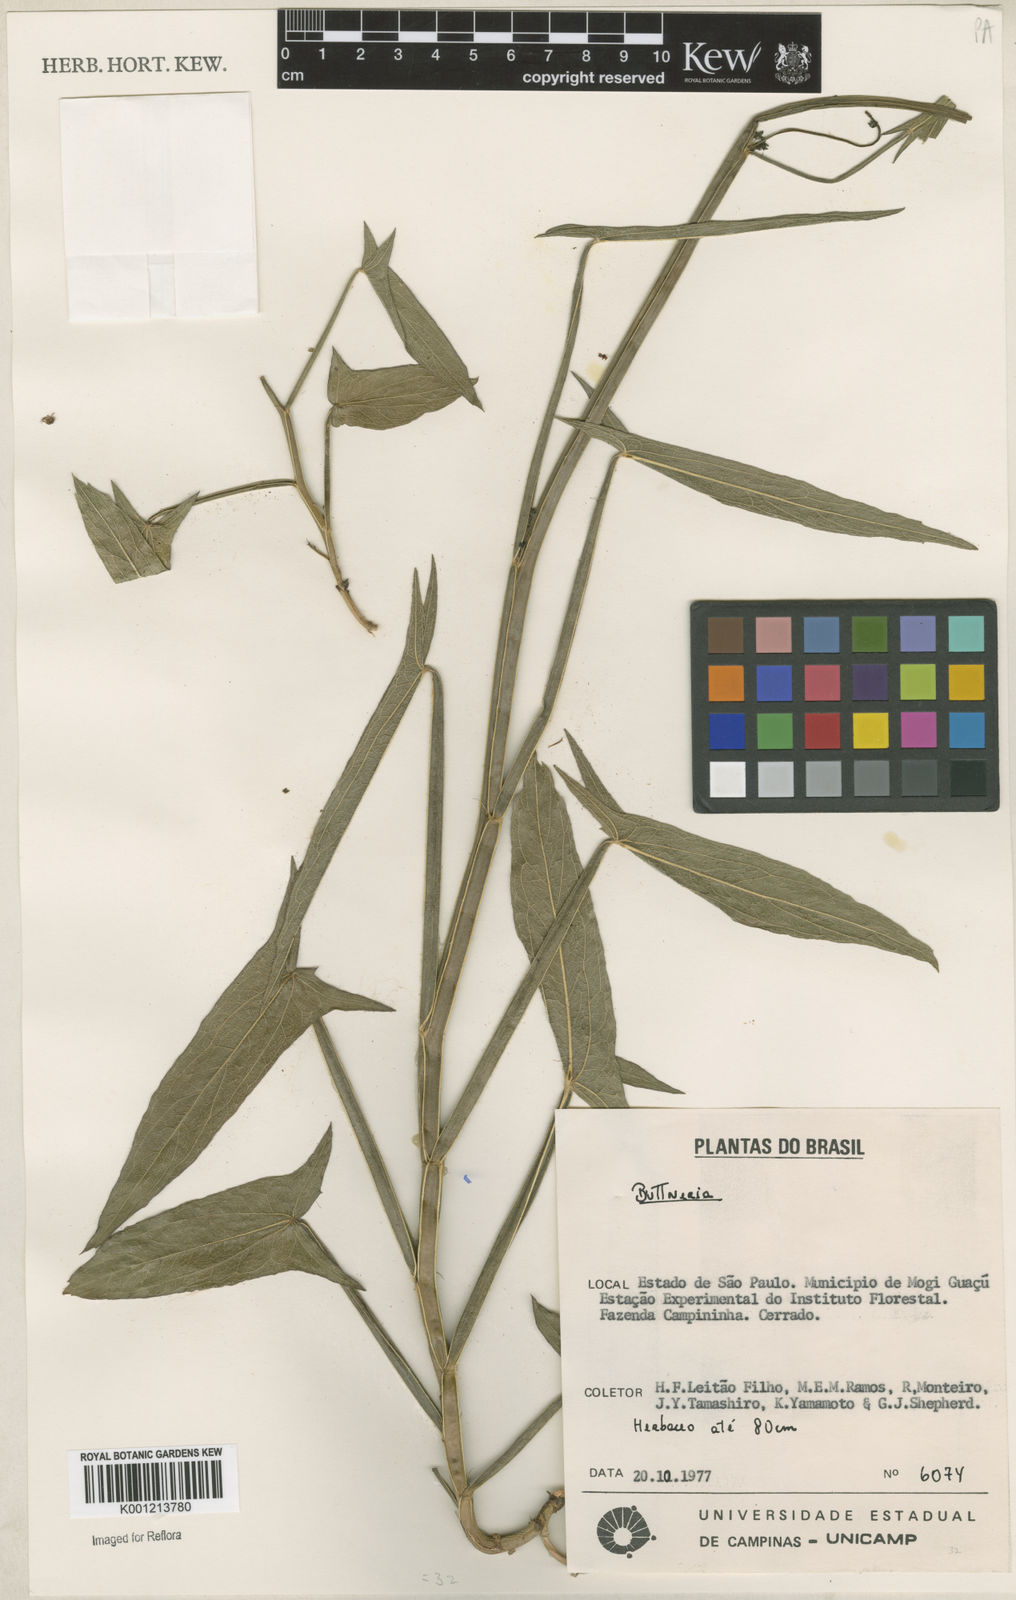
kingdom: Plantae
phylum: Tracheophyta
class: Magnoliopsida
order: Malvales
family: Malvaceae
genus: Byttneria
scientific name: Byttneria
